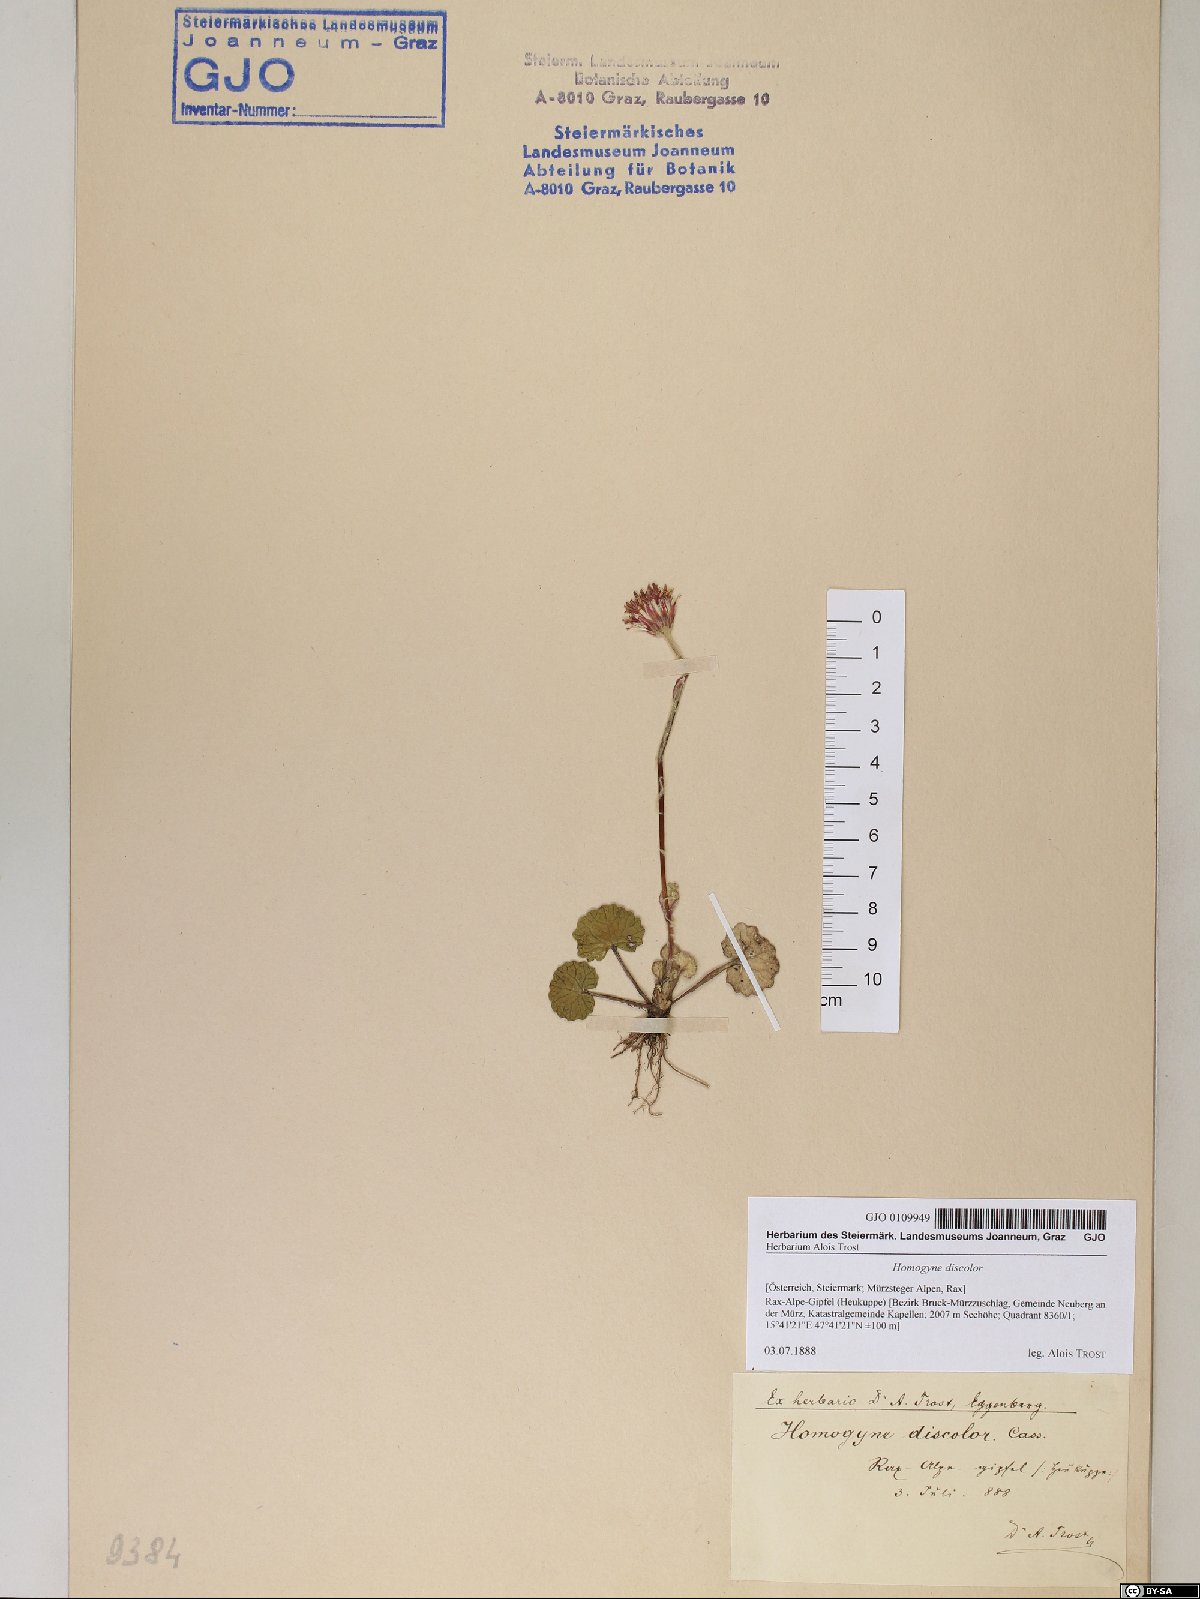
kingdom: Plantae
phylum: Tracheophyta
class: Magnoliopsida
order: Asterales
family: Asteraceae
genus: Homogyne
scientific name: Homogyne discolor
